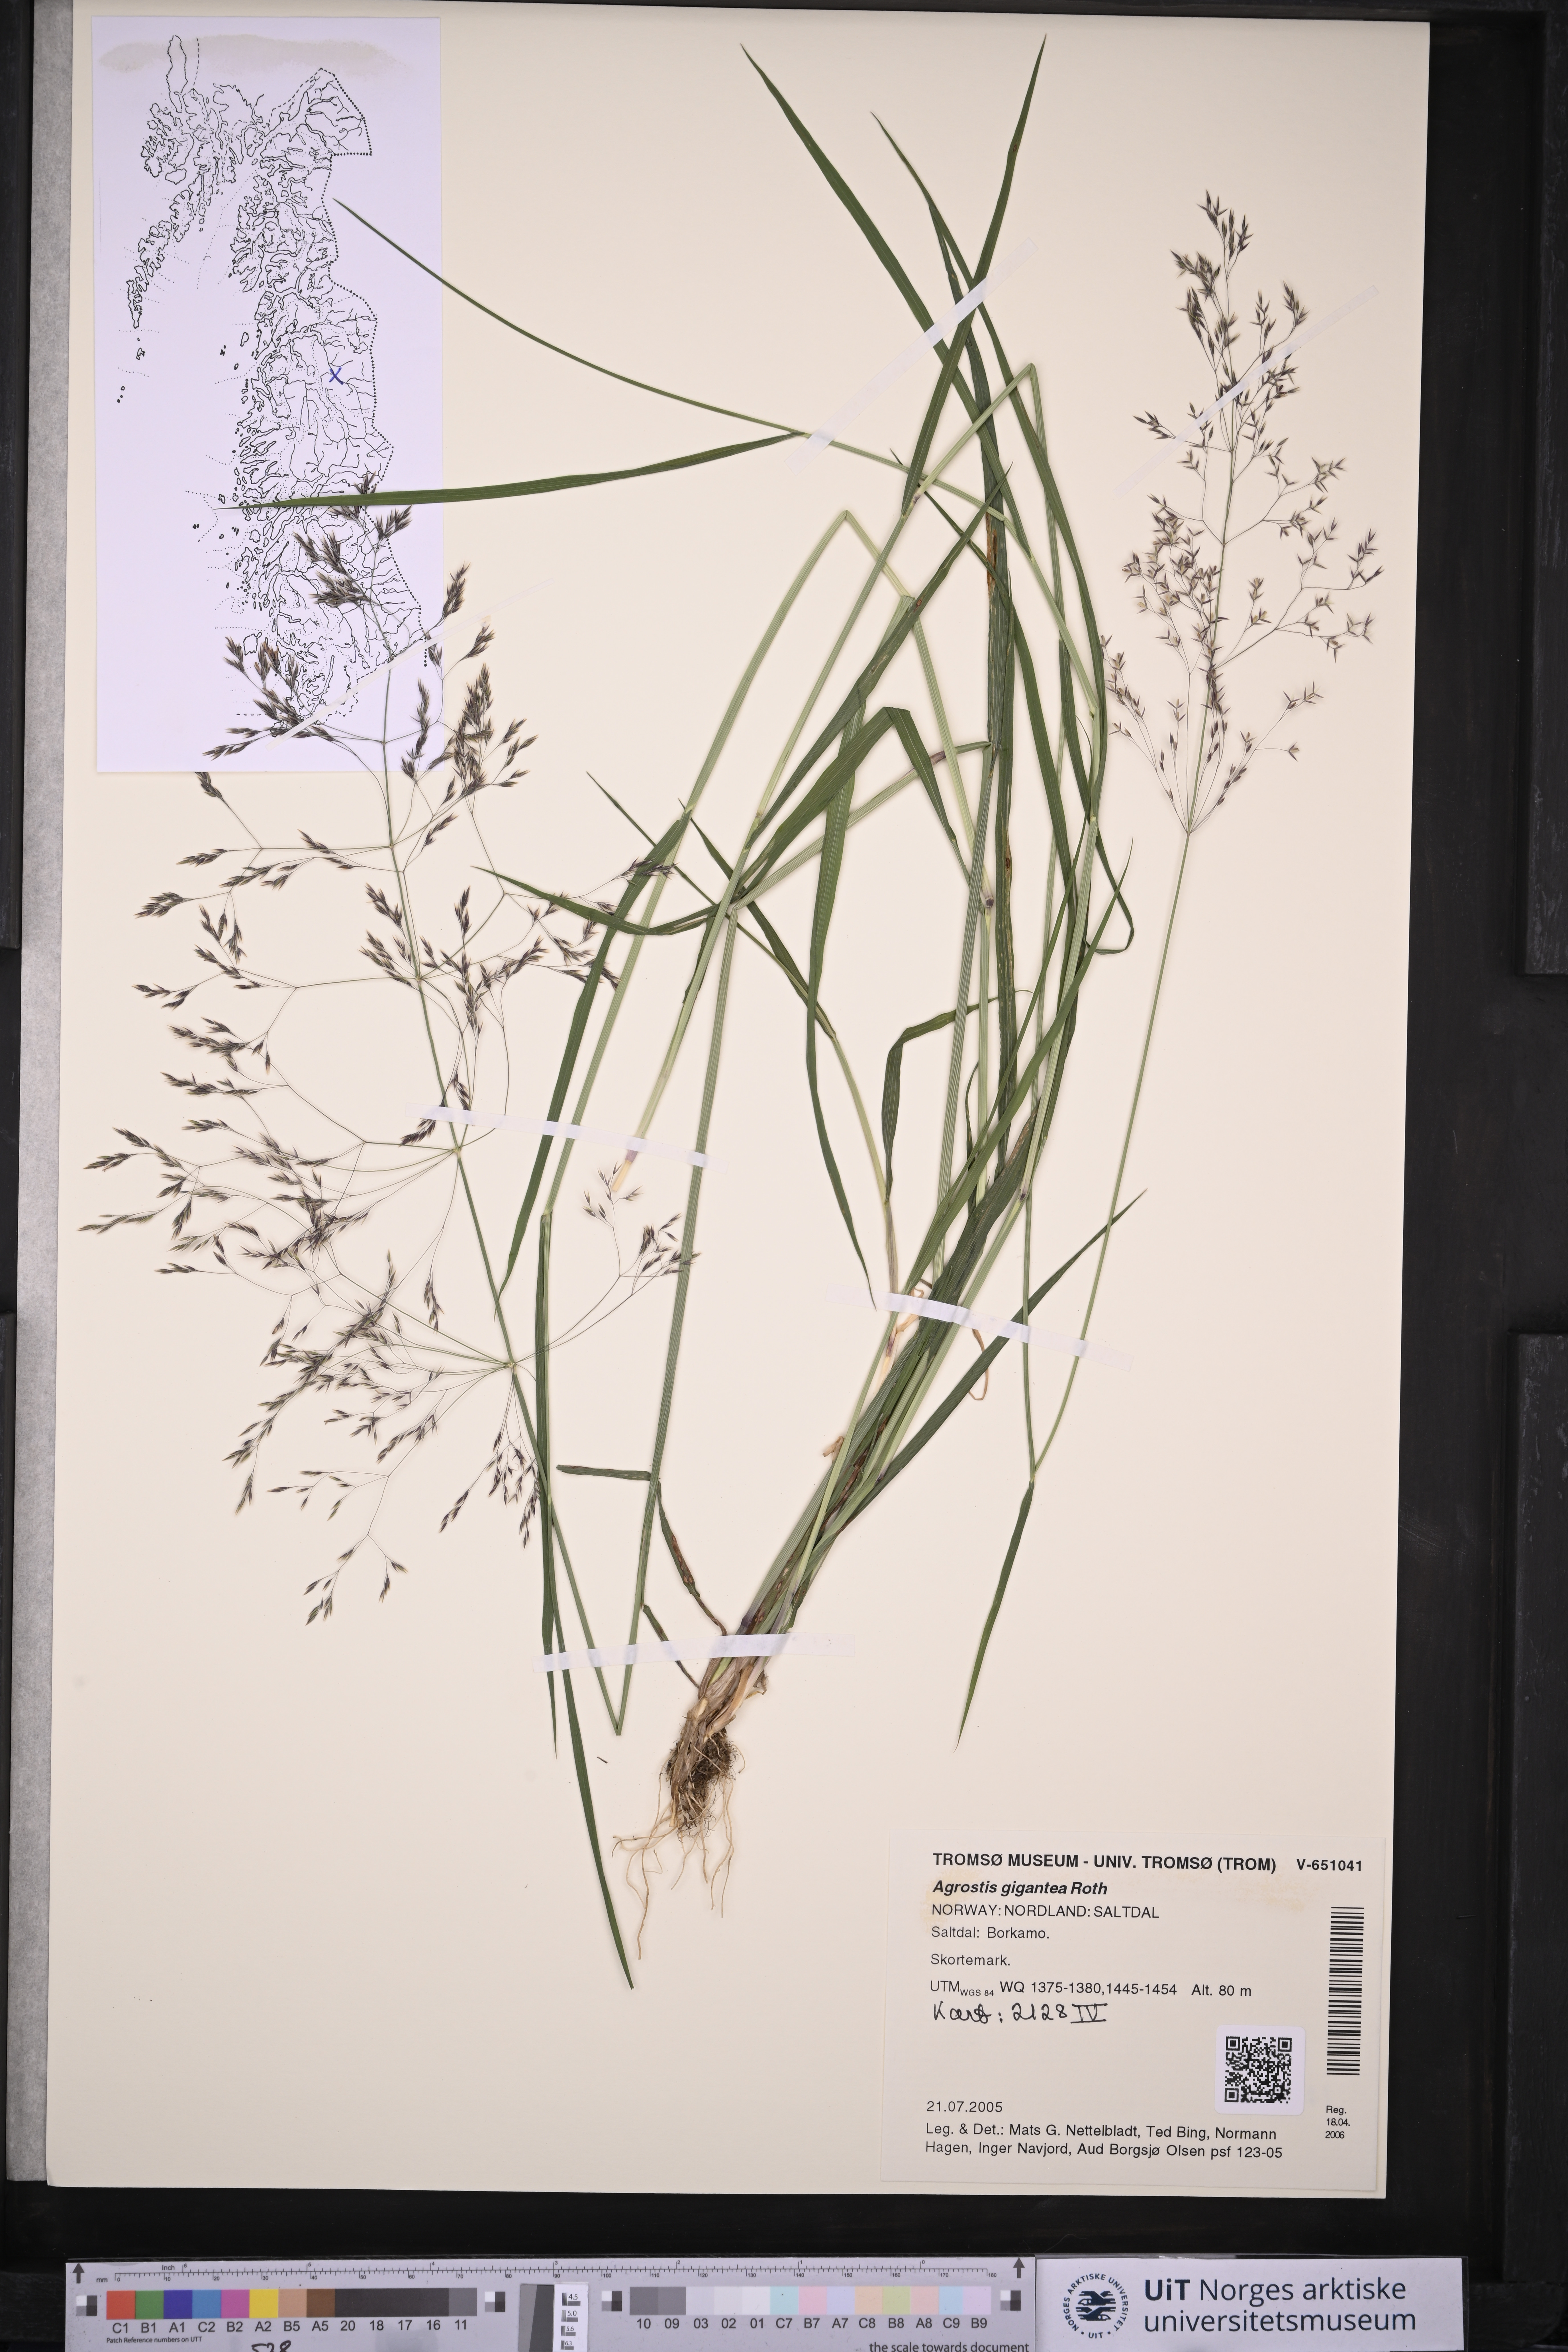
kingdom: Plantae
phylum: Tracheophyta
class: Liliopsida
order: Poales
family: Poaceae
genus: Agrostis
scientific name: Agrostis gigantea
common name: Black bent
